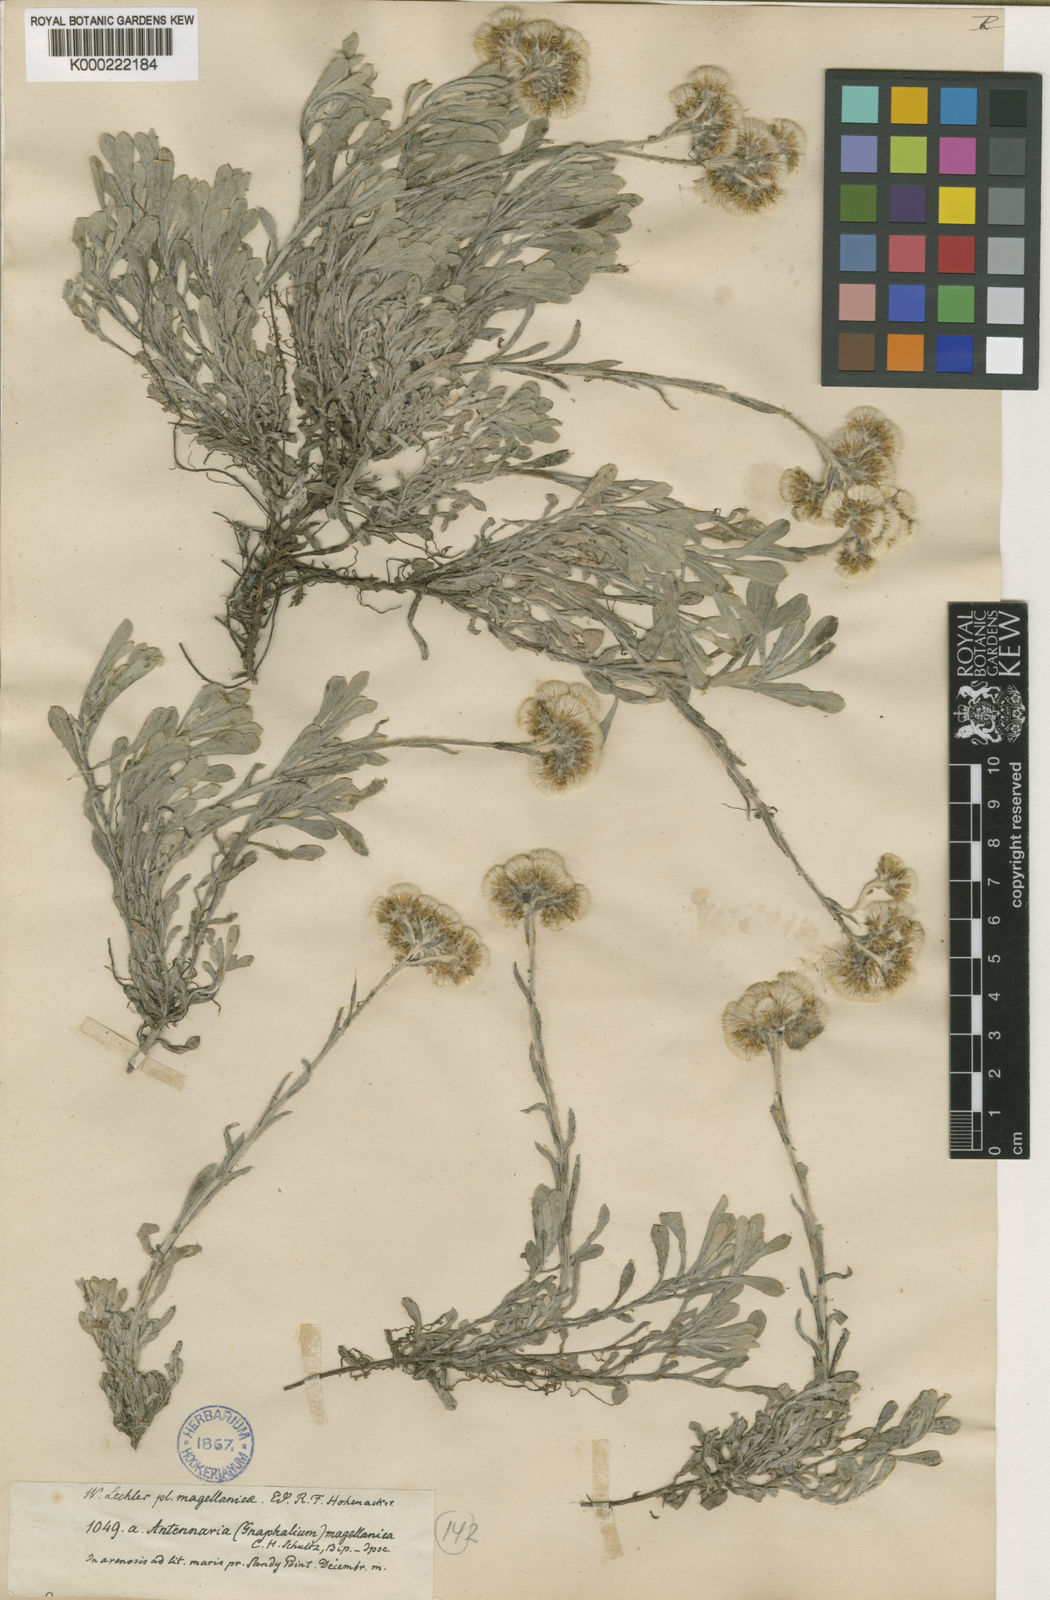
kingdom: Plantae
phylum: Tracheophyta
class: Magnoliopsida
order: Asterales
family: Asteraceae
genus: Antennaria
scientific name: Antennaria chilensis
